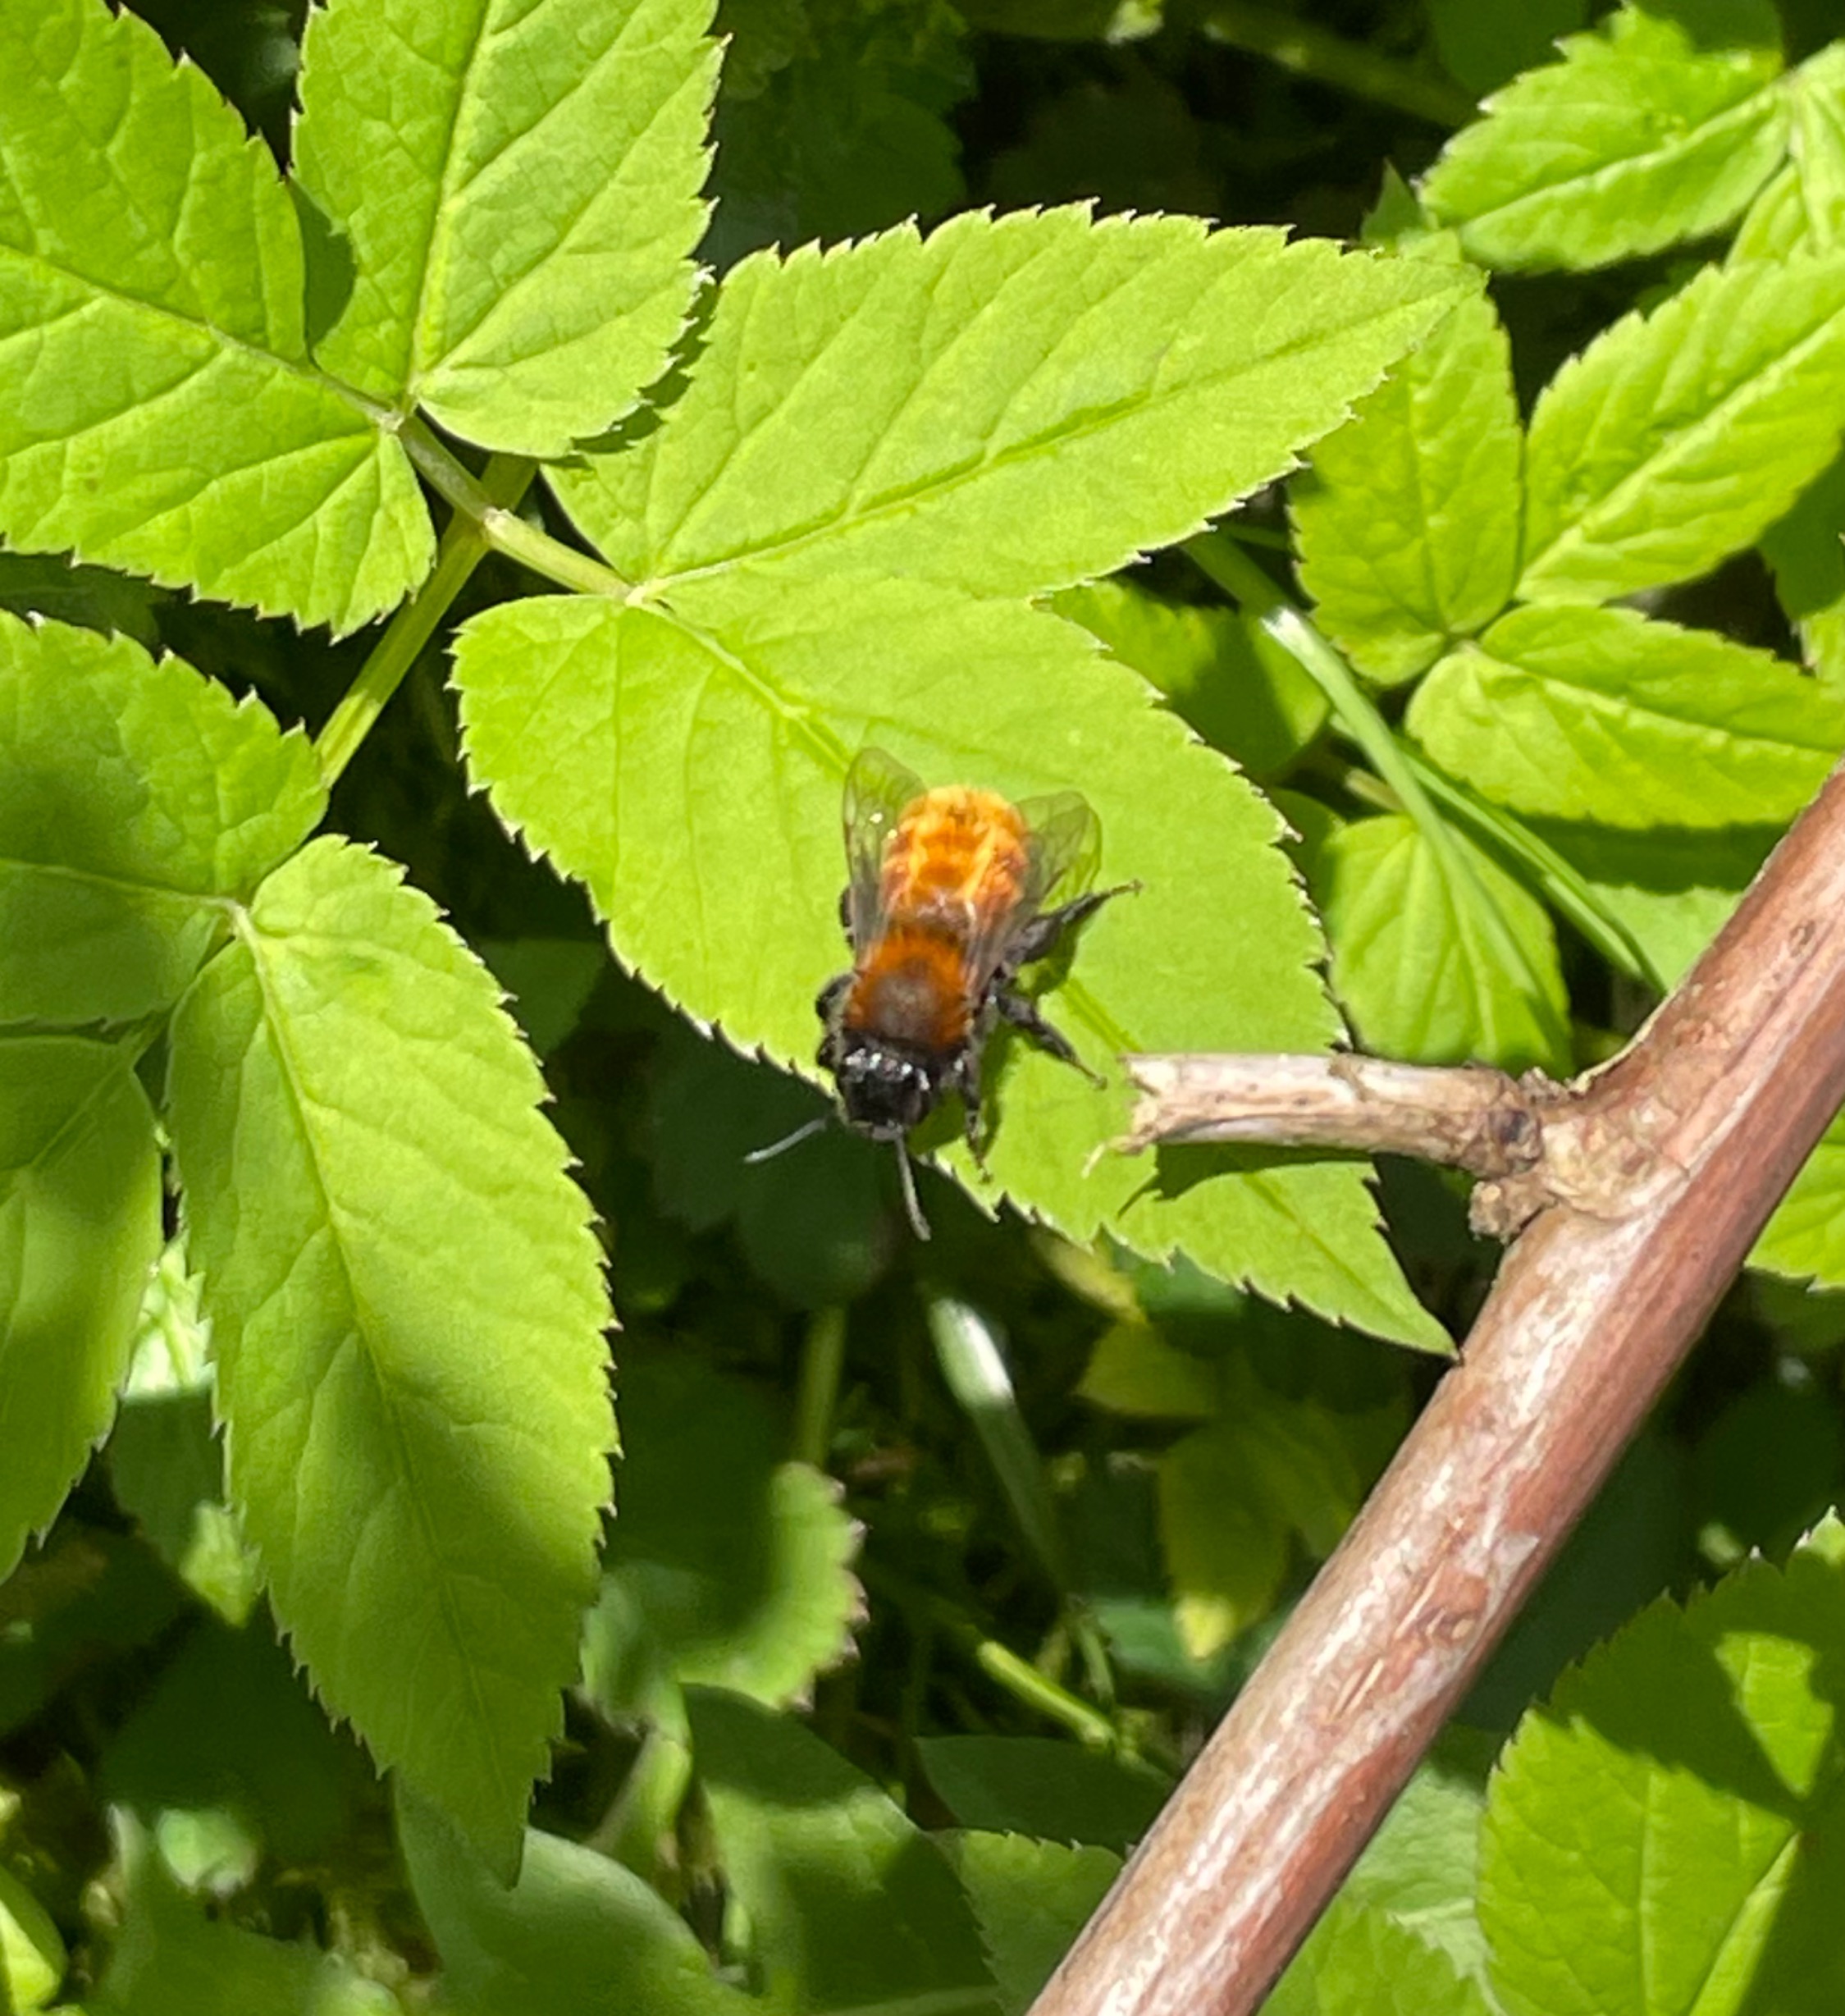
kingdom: Animalia
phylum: Arthropoda
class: Insecta
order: Hymenoptera
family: Andrenidae
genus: Andrena
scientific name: Andrena fulva
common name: Rødpelset jordbi
